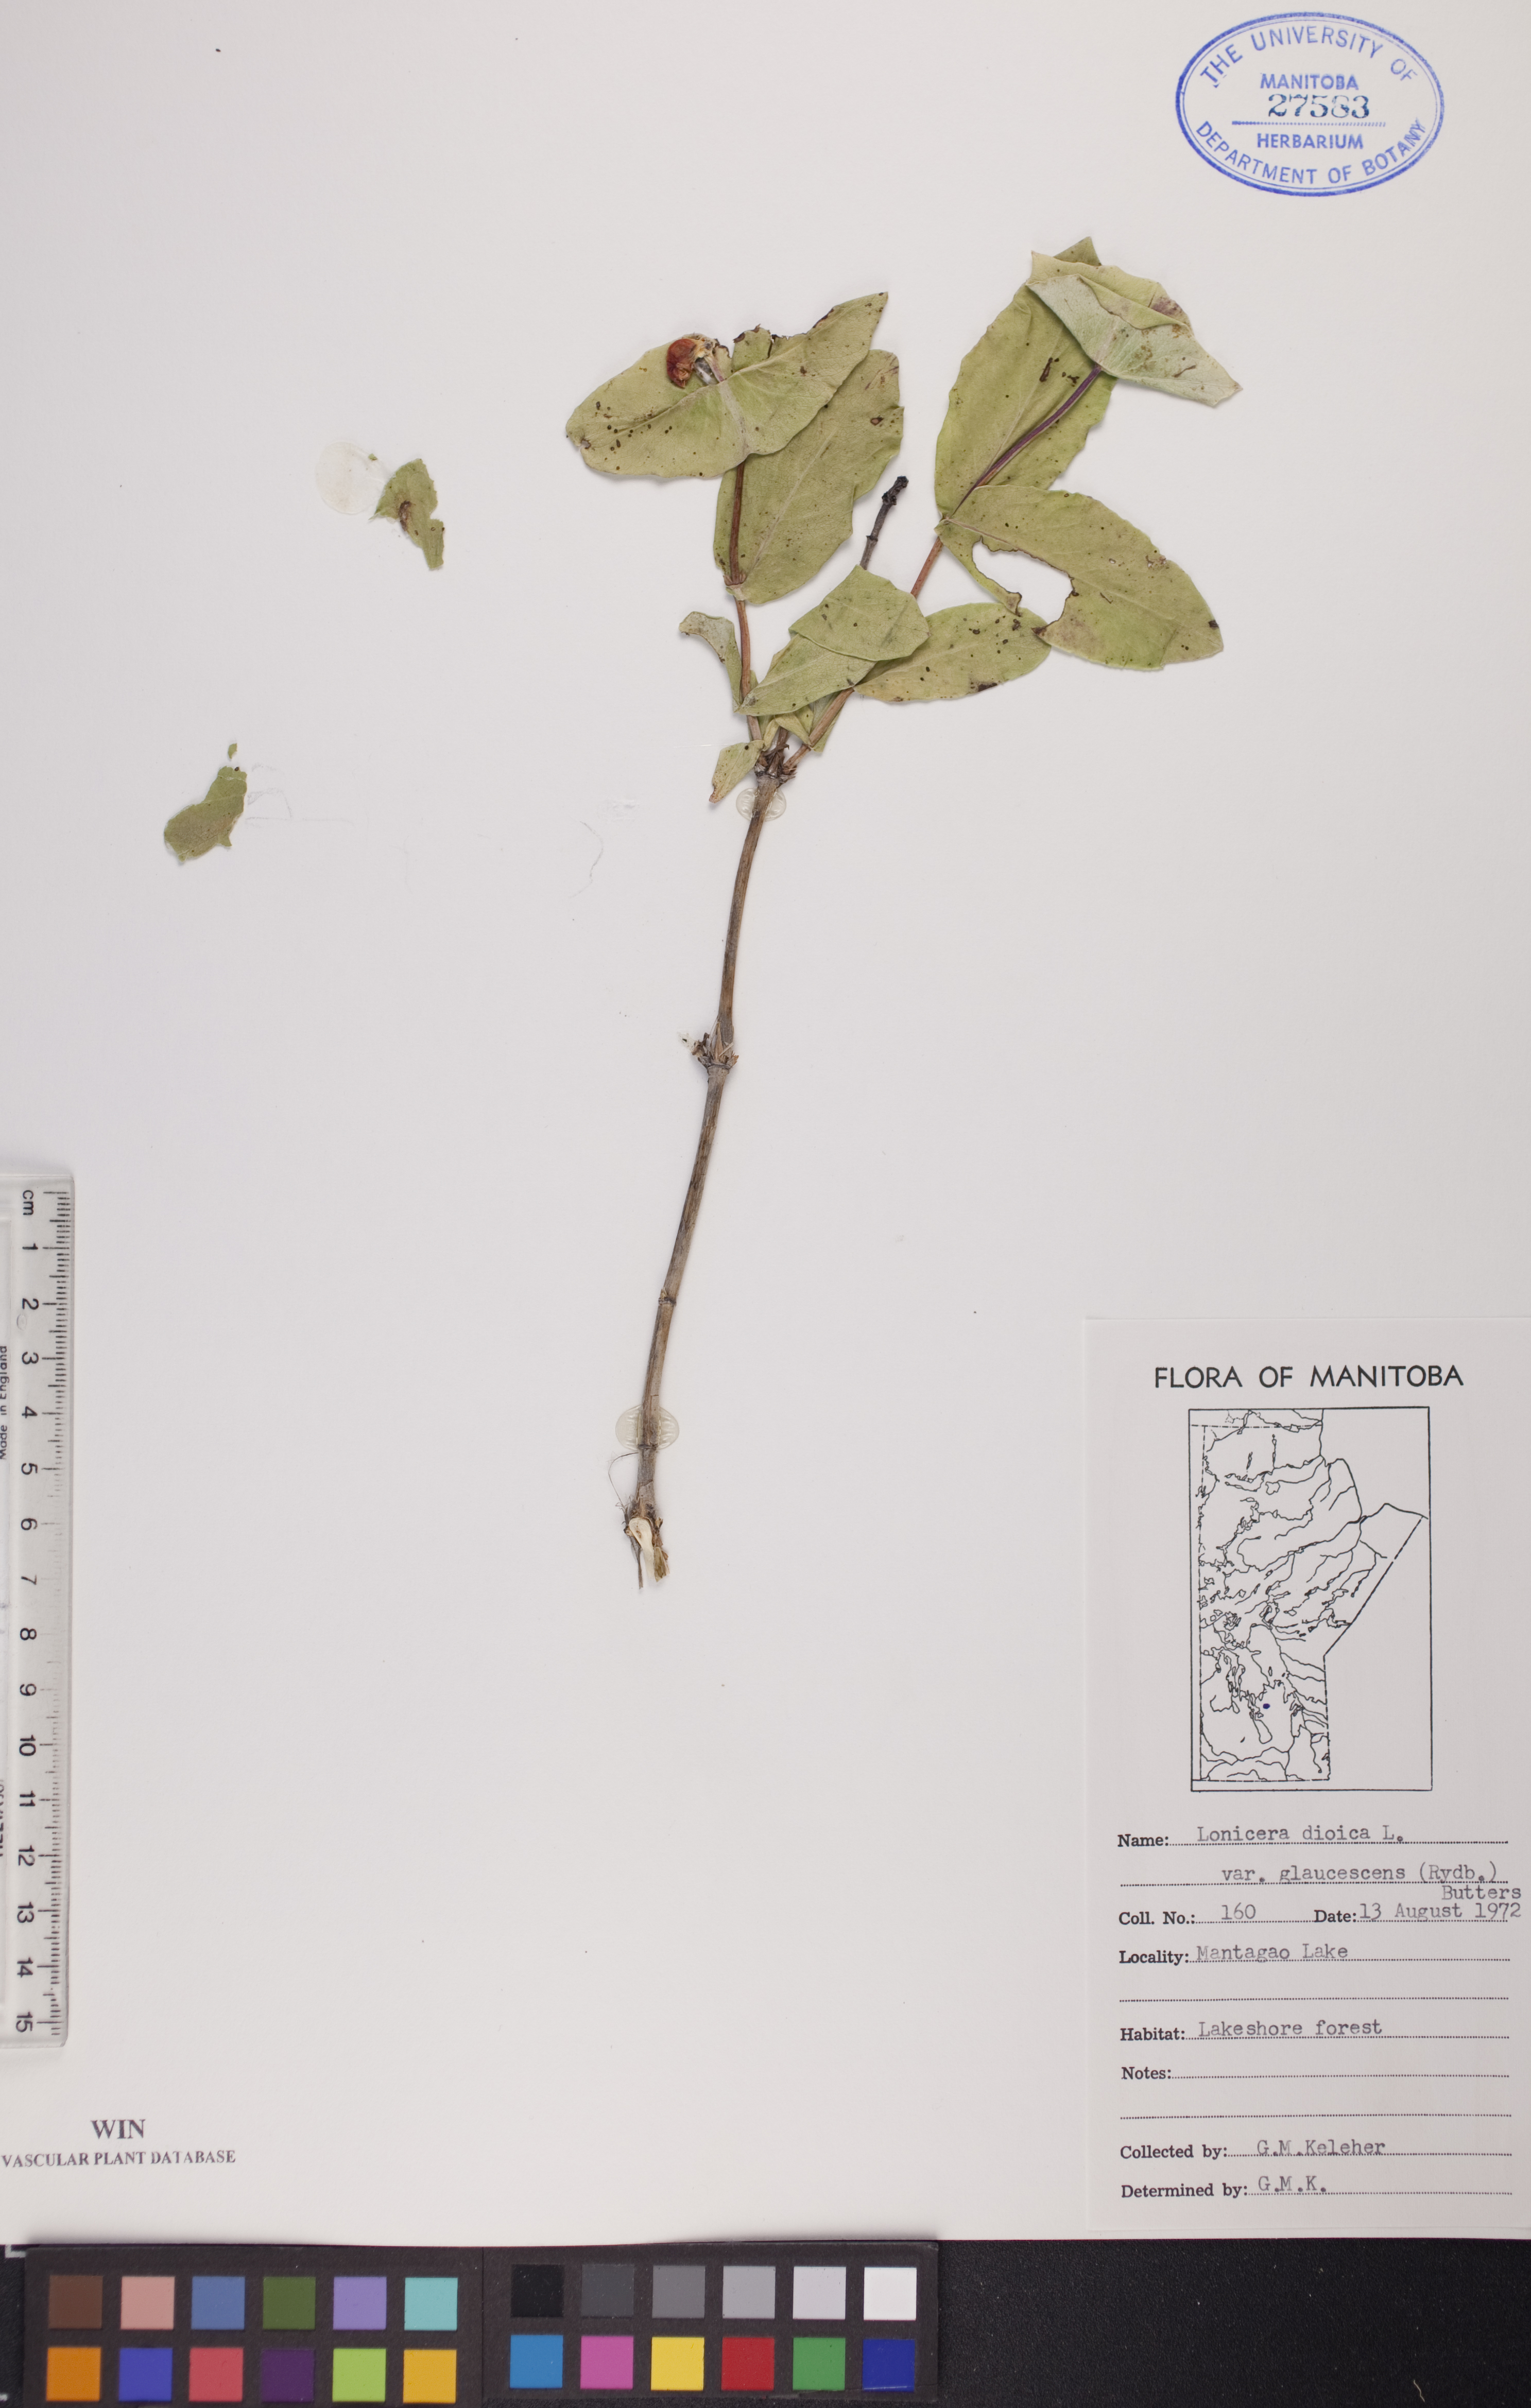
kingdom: Plantae
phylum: Tracheophyta
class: Magnoliopsida
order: Dipsacales
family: Caprifoliaceae
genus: Lonicera
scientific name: Lonicera dioica
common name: Limber honeysuckle
